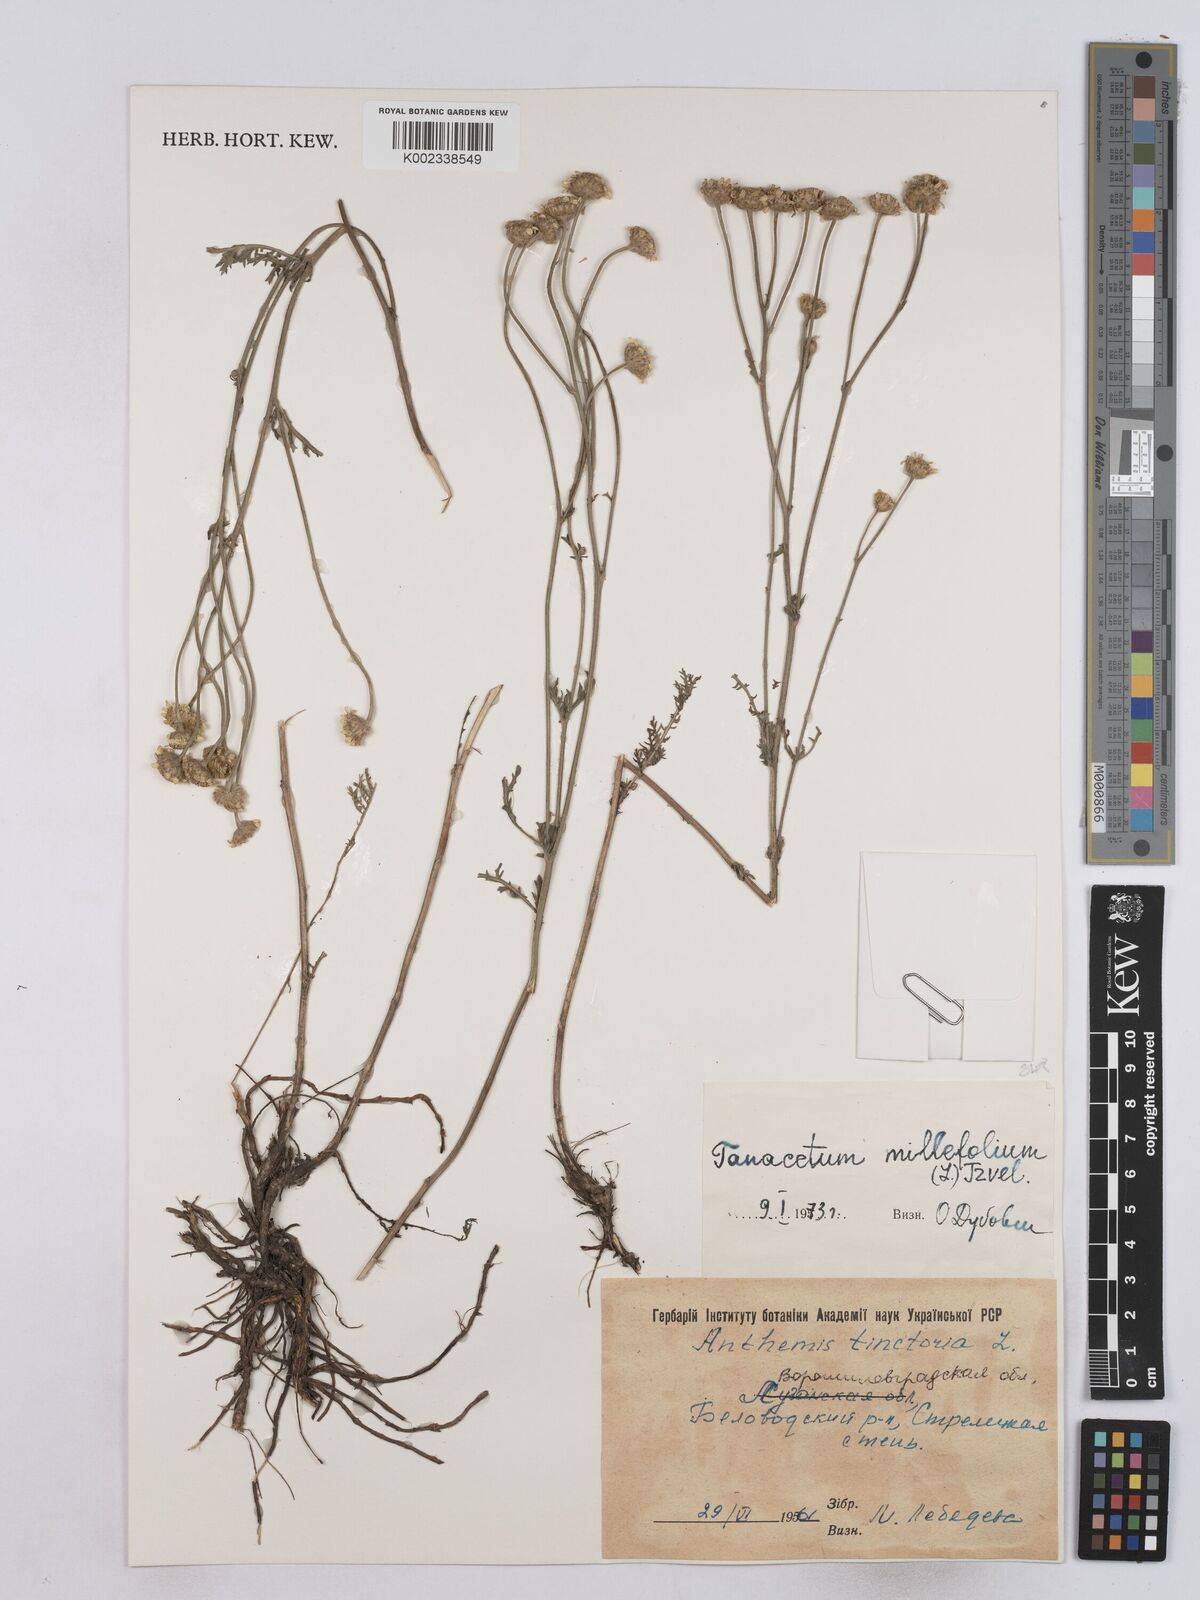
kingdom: Plantae
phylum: Tracheophyta
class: Magnoliopsida
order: Asterales
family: Asteraceae
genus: Tanacetum
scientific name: Tanacetum millefolium
